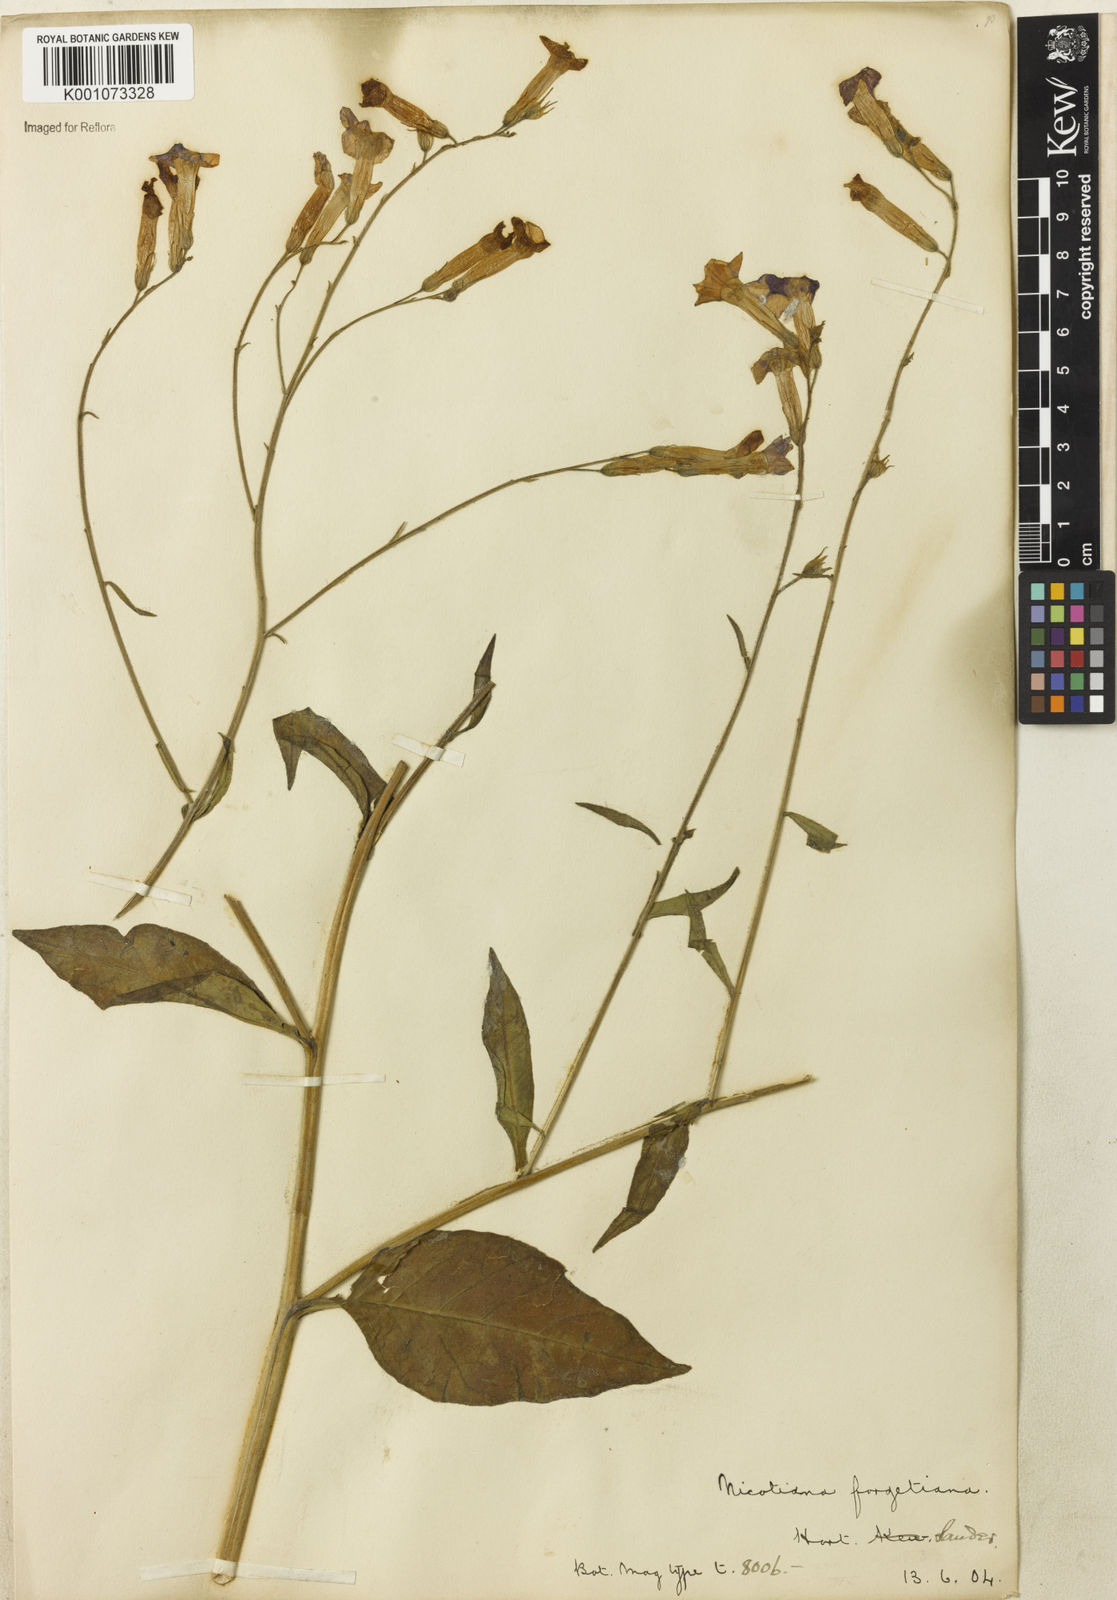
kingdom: Plantae
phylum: Tracheophyta
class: Magnoliopsida
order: Solanales
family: Solanaceae
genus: Nicotiana
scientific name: Nicotiana
